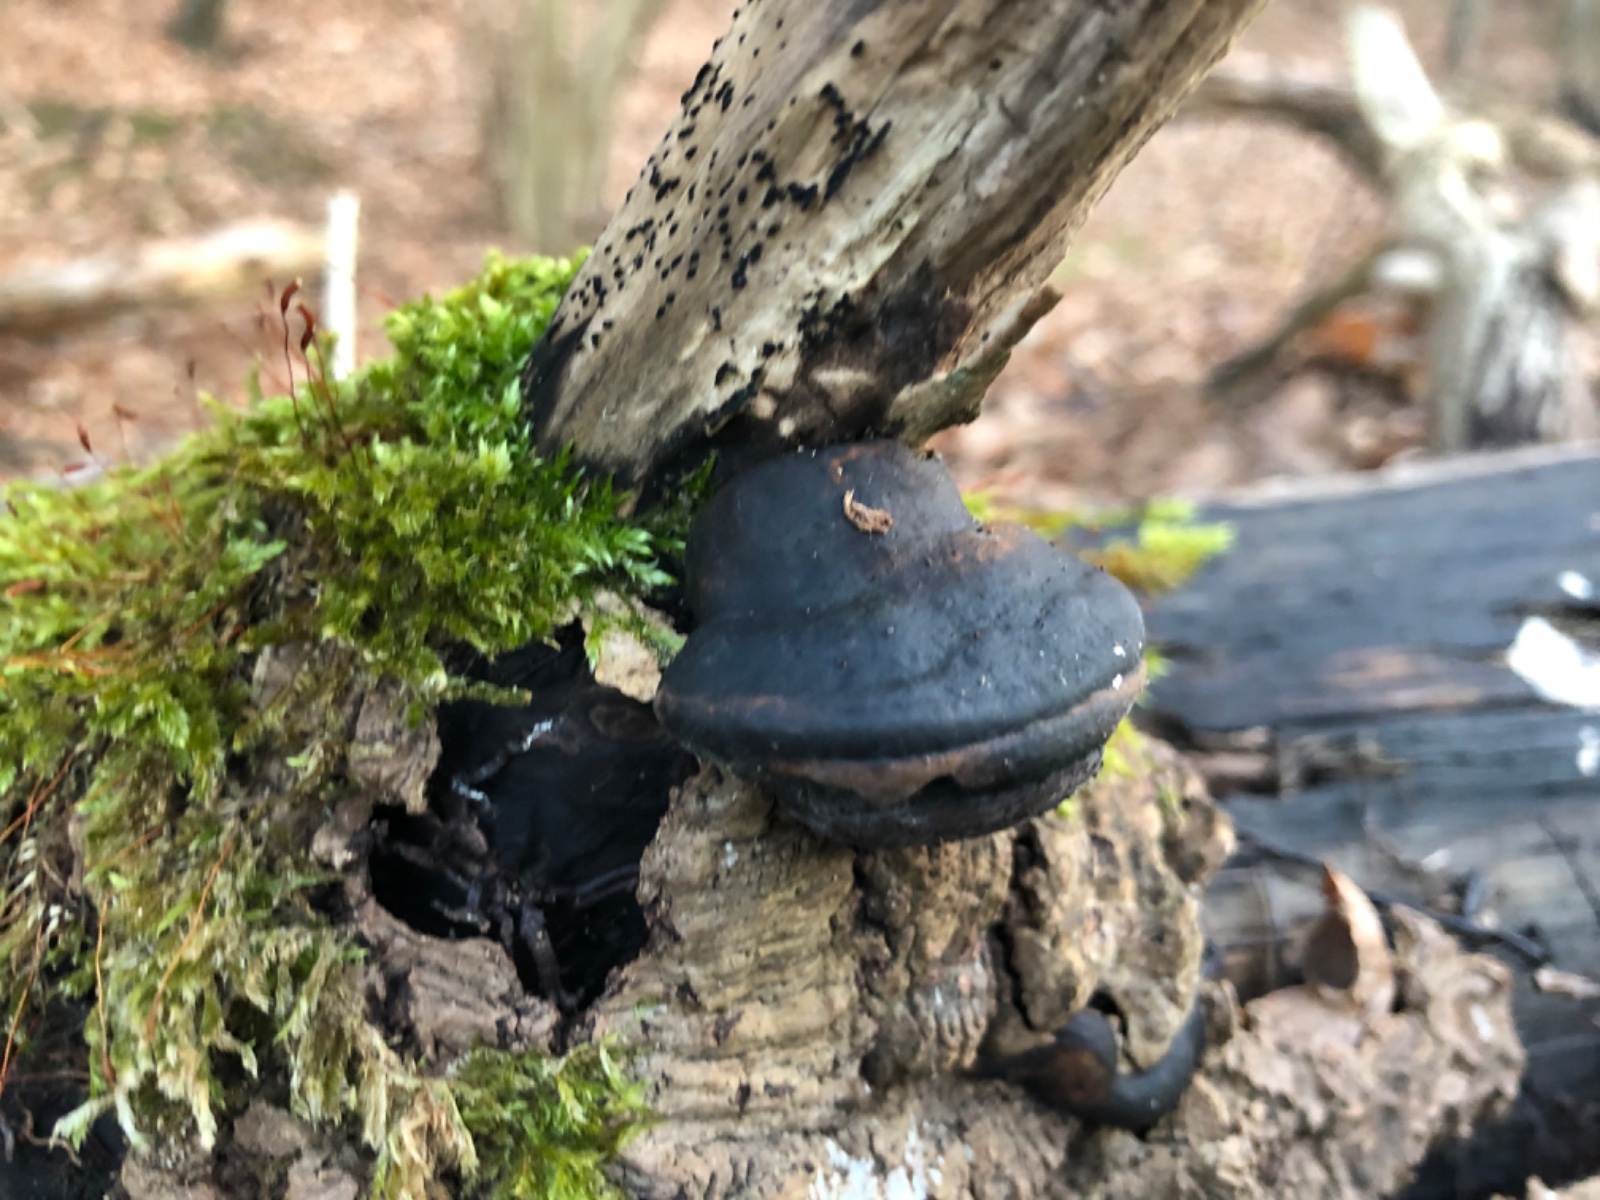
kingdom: Fungi
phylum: Basidiomycota
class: Agaricomycetes
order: Hymenochaetales
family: Hymenochaetaceae
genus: Phellinus
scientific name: Phellinus populicola
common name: poppel-ildporesvamp
